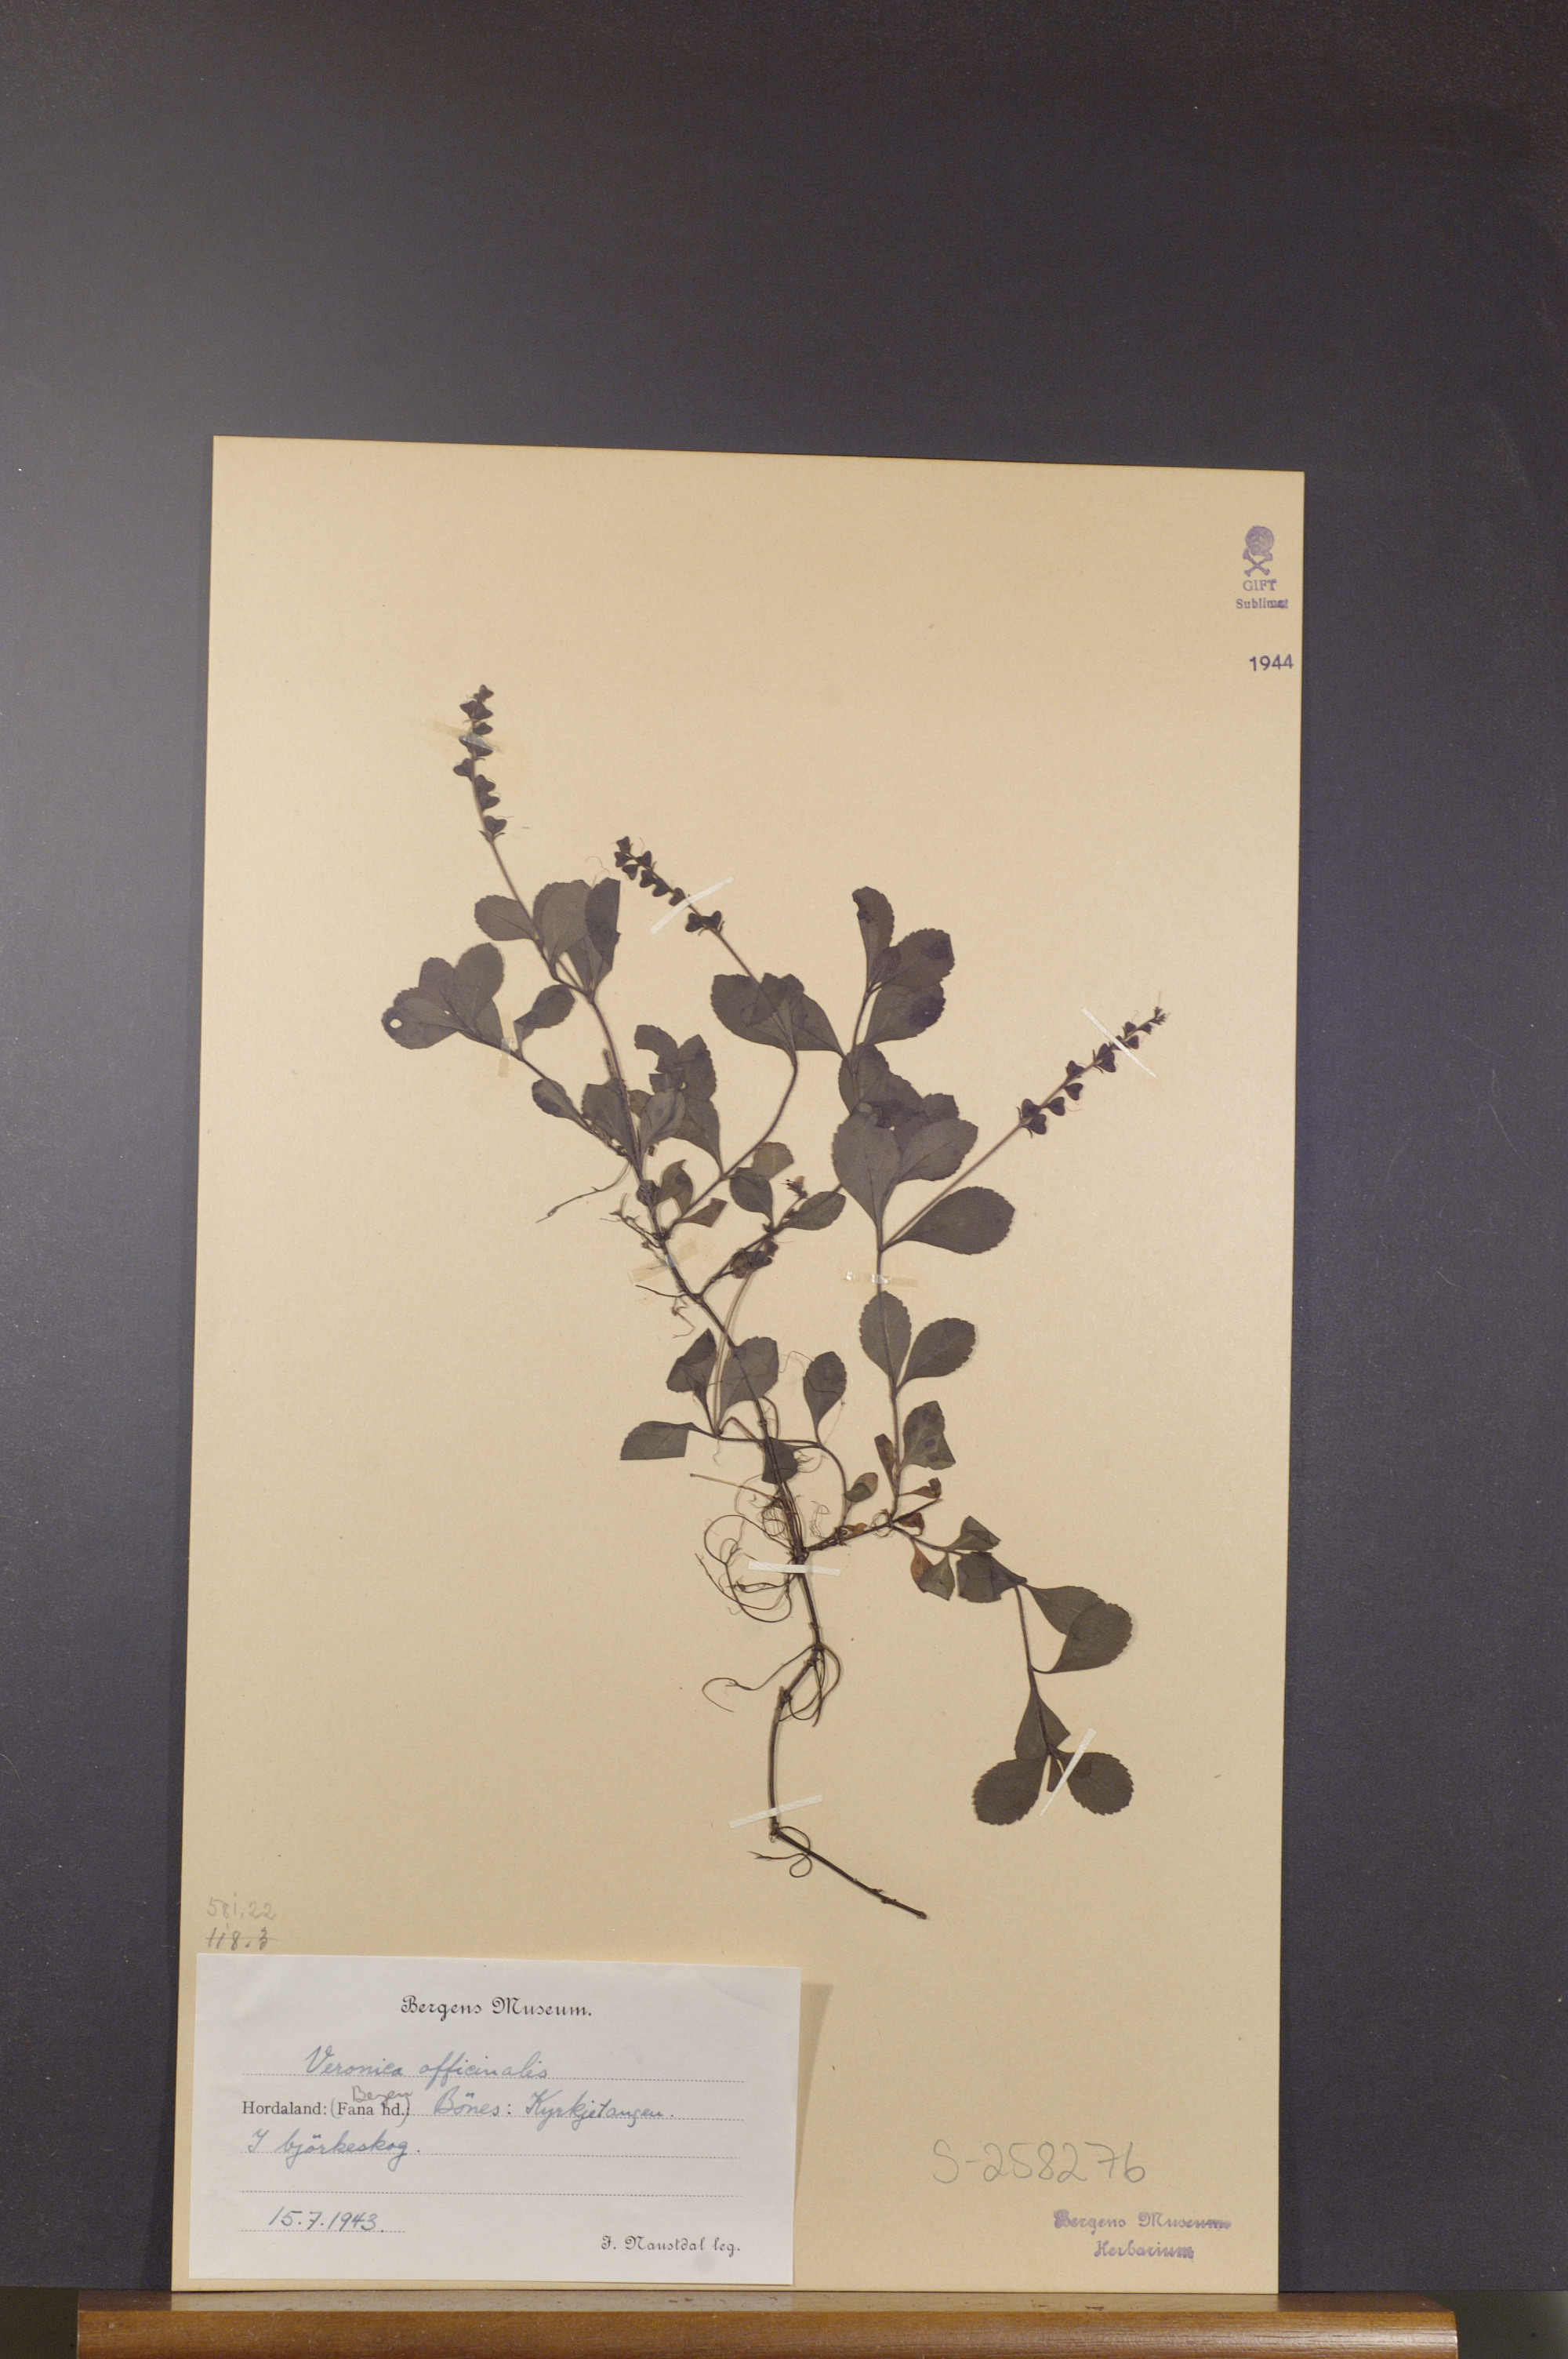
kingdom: Plantae
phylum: Tracheophyta
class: Magnoliopsida
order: Lamiales
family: Plantaginaceae
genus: Veronica
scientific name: Veronica officinalis
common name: Common speedwell
